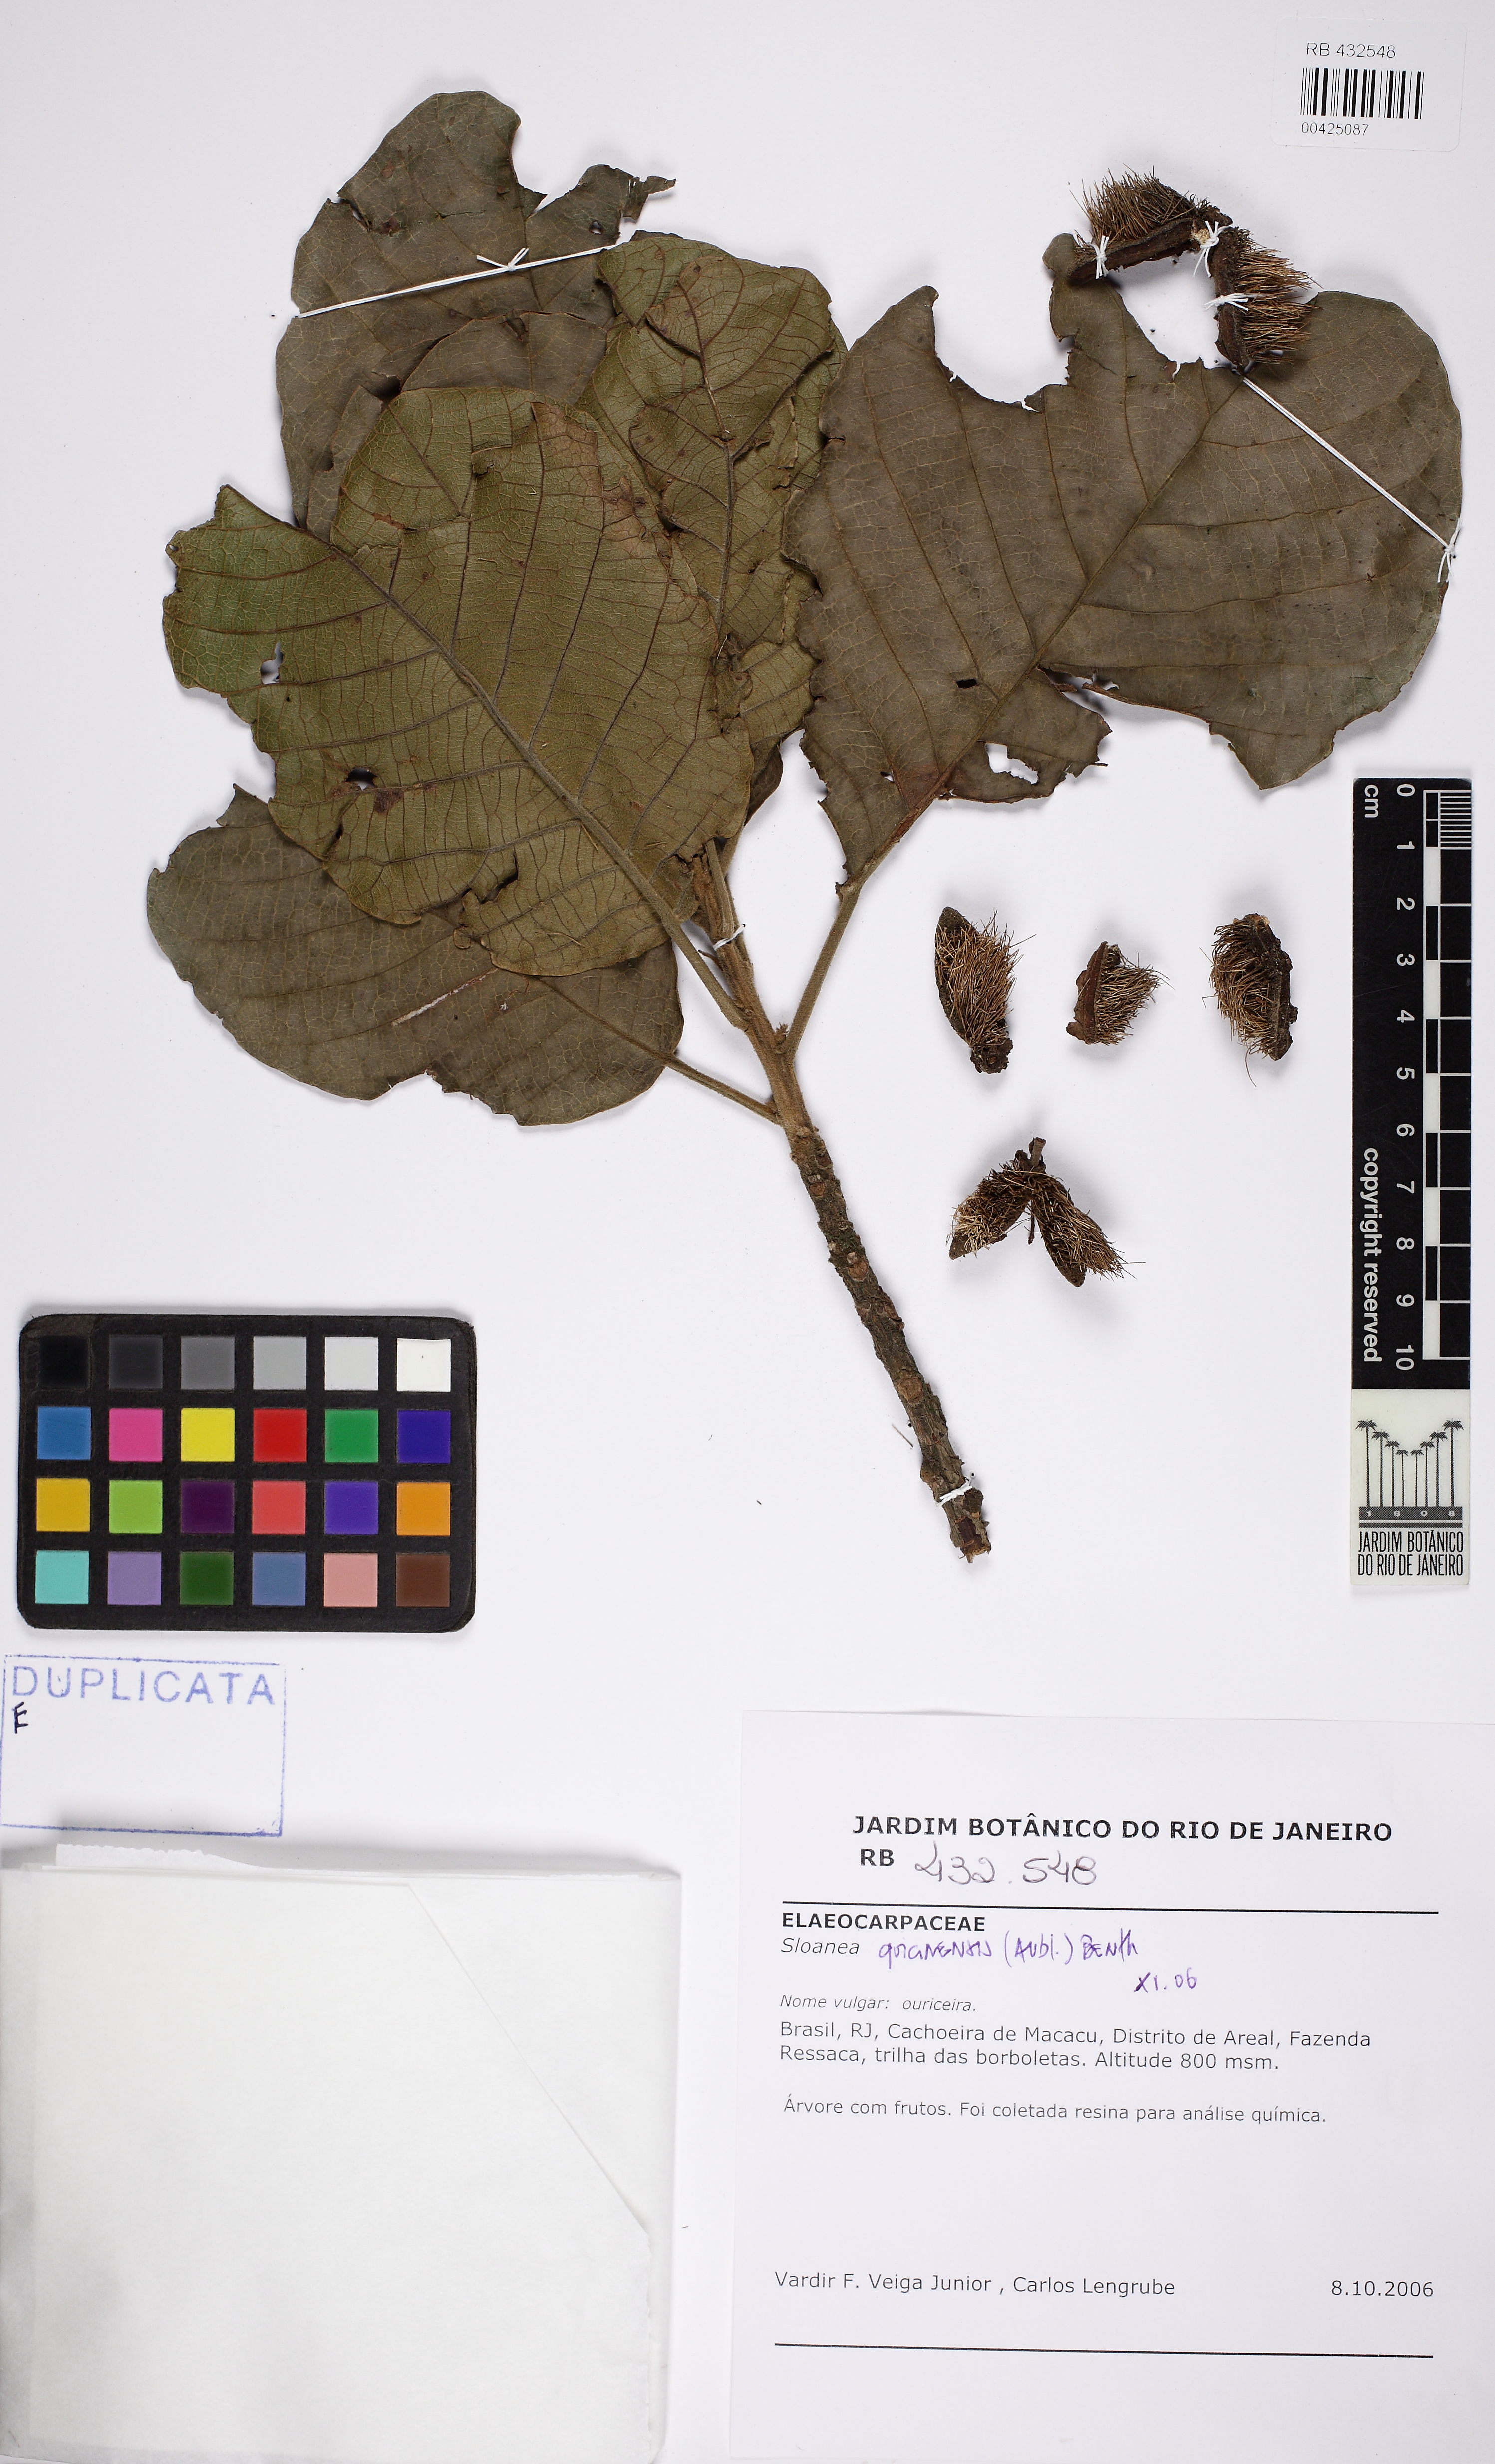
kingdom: Plantae
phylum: Tracheophyta
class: Magnoliopsida
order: Oxalidales
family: Elaeocarpaceae
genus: Sloanea
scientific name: Sloanea guianensis
